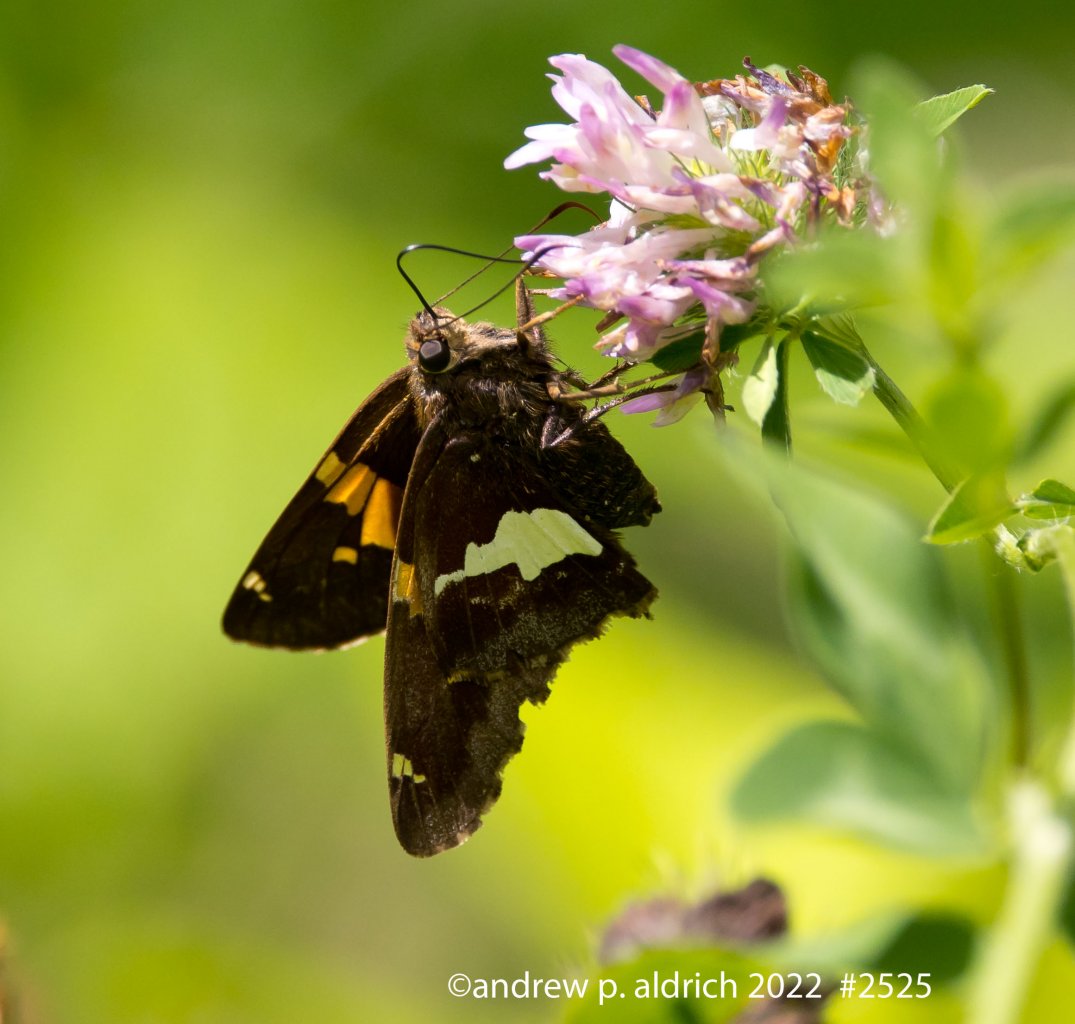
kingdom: Animalia
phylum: Arthropoda
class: Insecta
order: Lepidoptera
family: Hesperiidae
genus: Epargyreus
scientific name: Epargyreus clarus
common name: Silver-spotted Skipper
